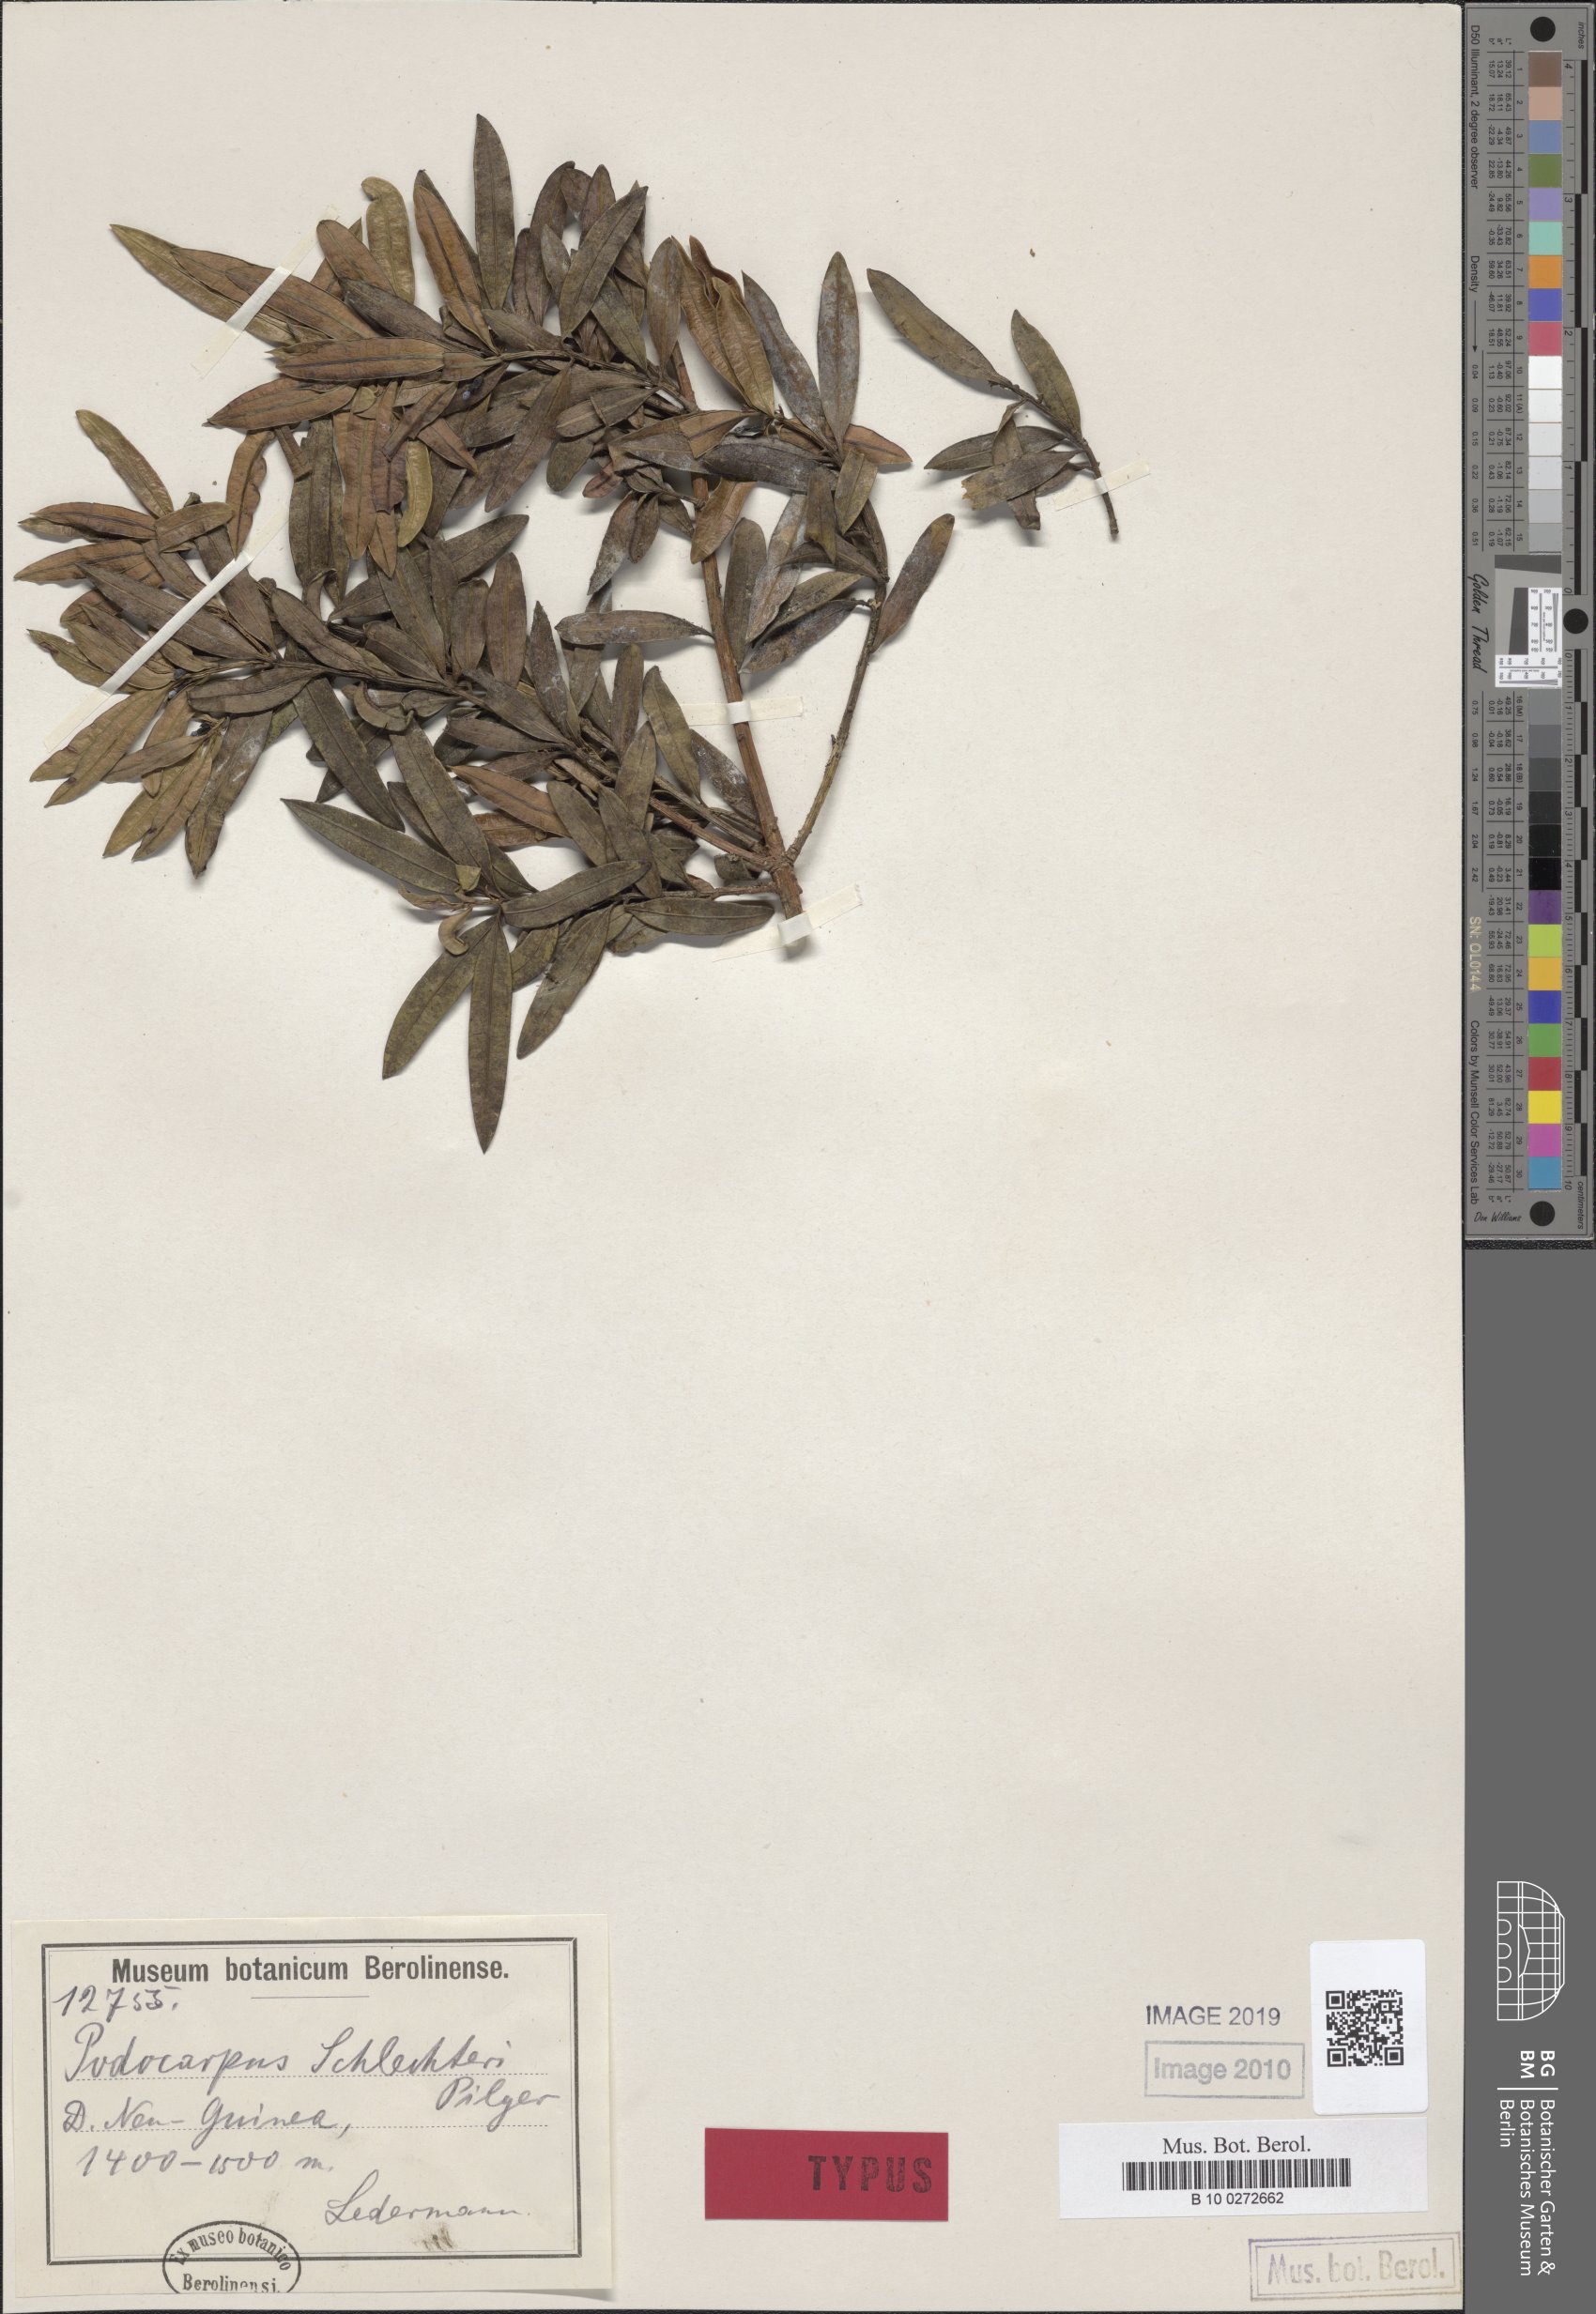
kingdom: Plantae
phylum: Tracheophyta
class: Pinopsida
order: Pinales
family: Podocarpaceae
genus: Podocarpus
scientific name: Podocarpus pilgeri
